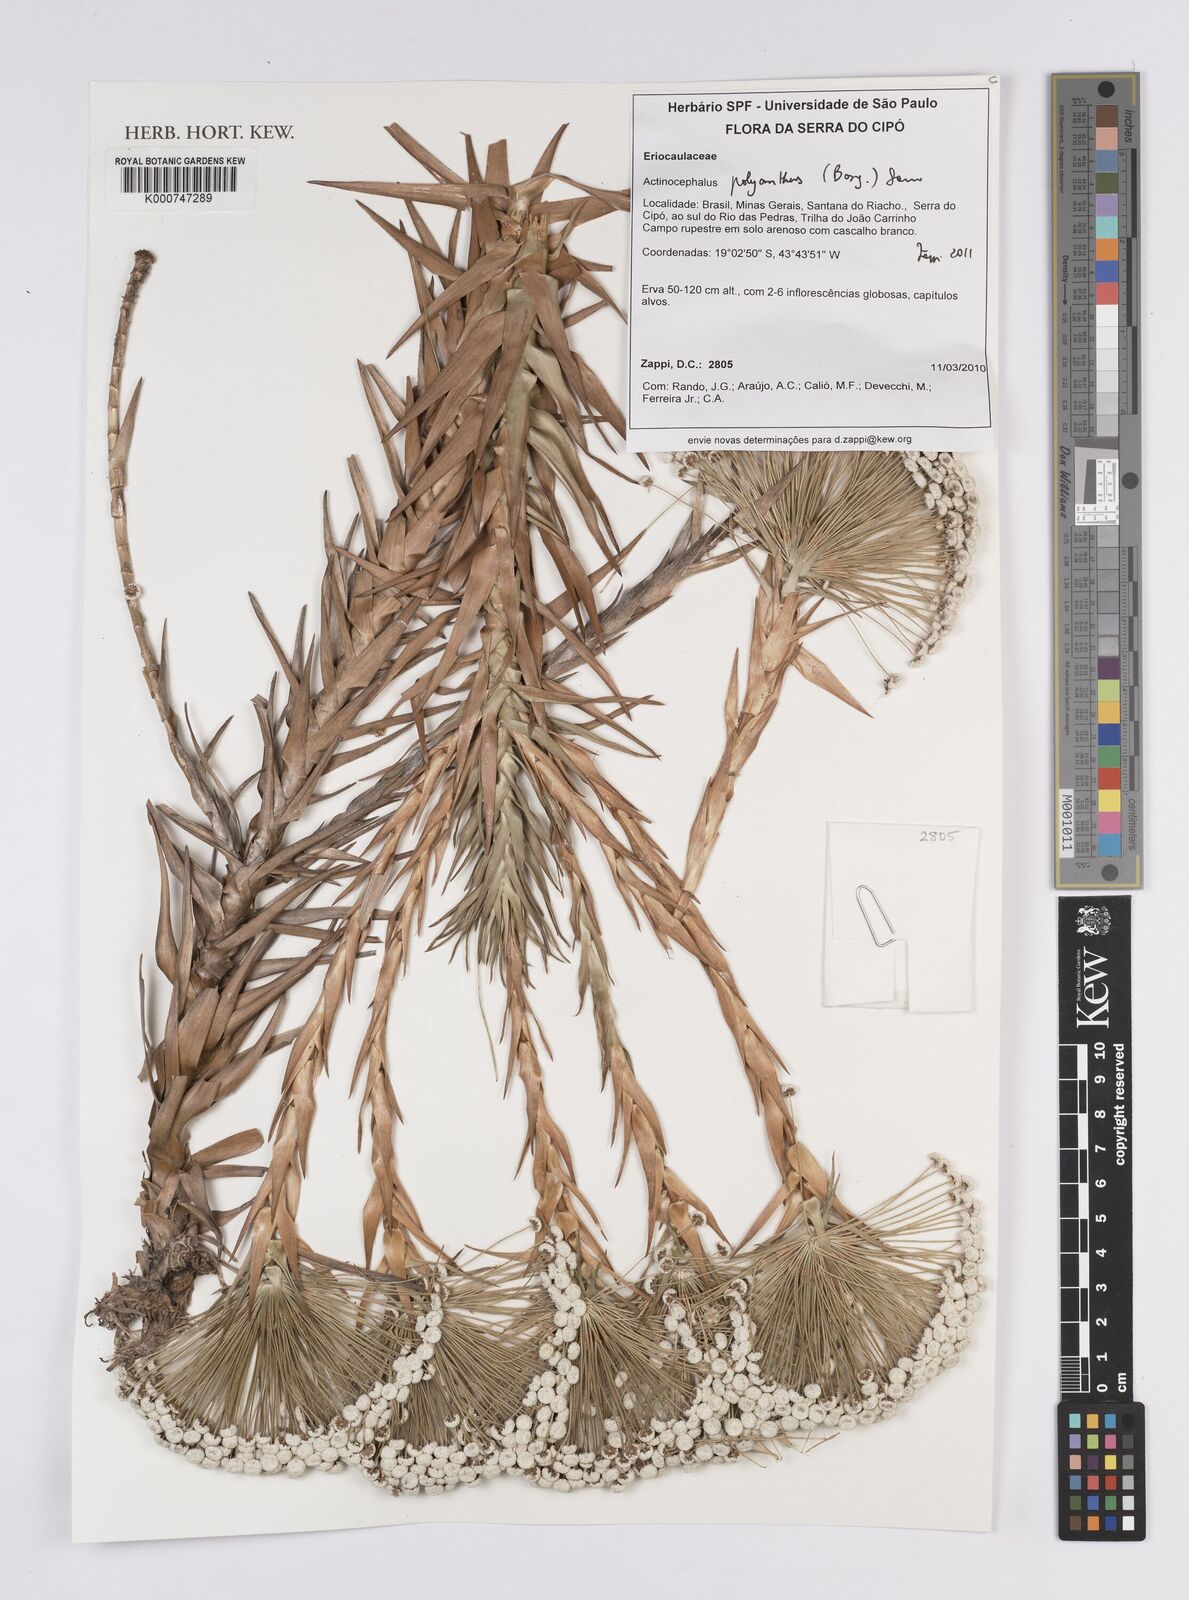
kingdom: Plantae
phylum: Tracheophyta
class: Liliopsida
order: Poales
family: Eriocaulaceae
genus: Paepalanthus
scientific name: Paepalanthus polyanthus
